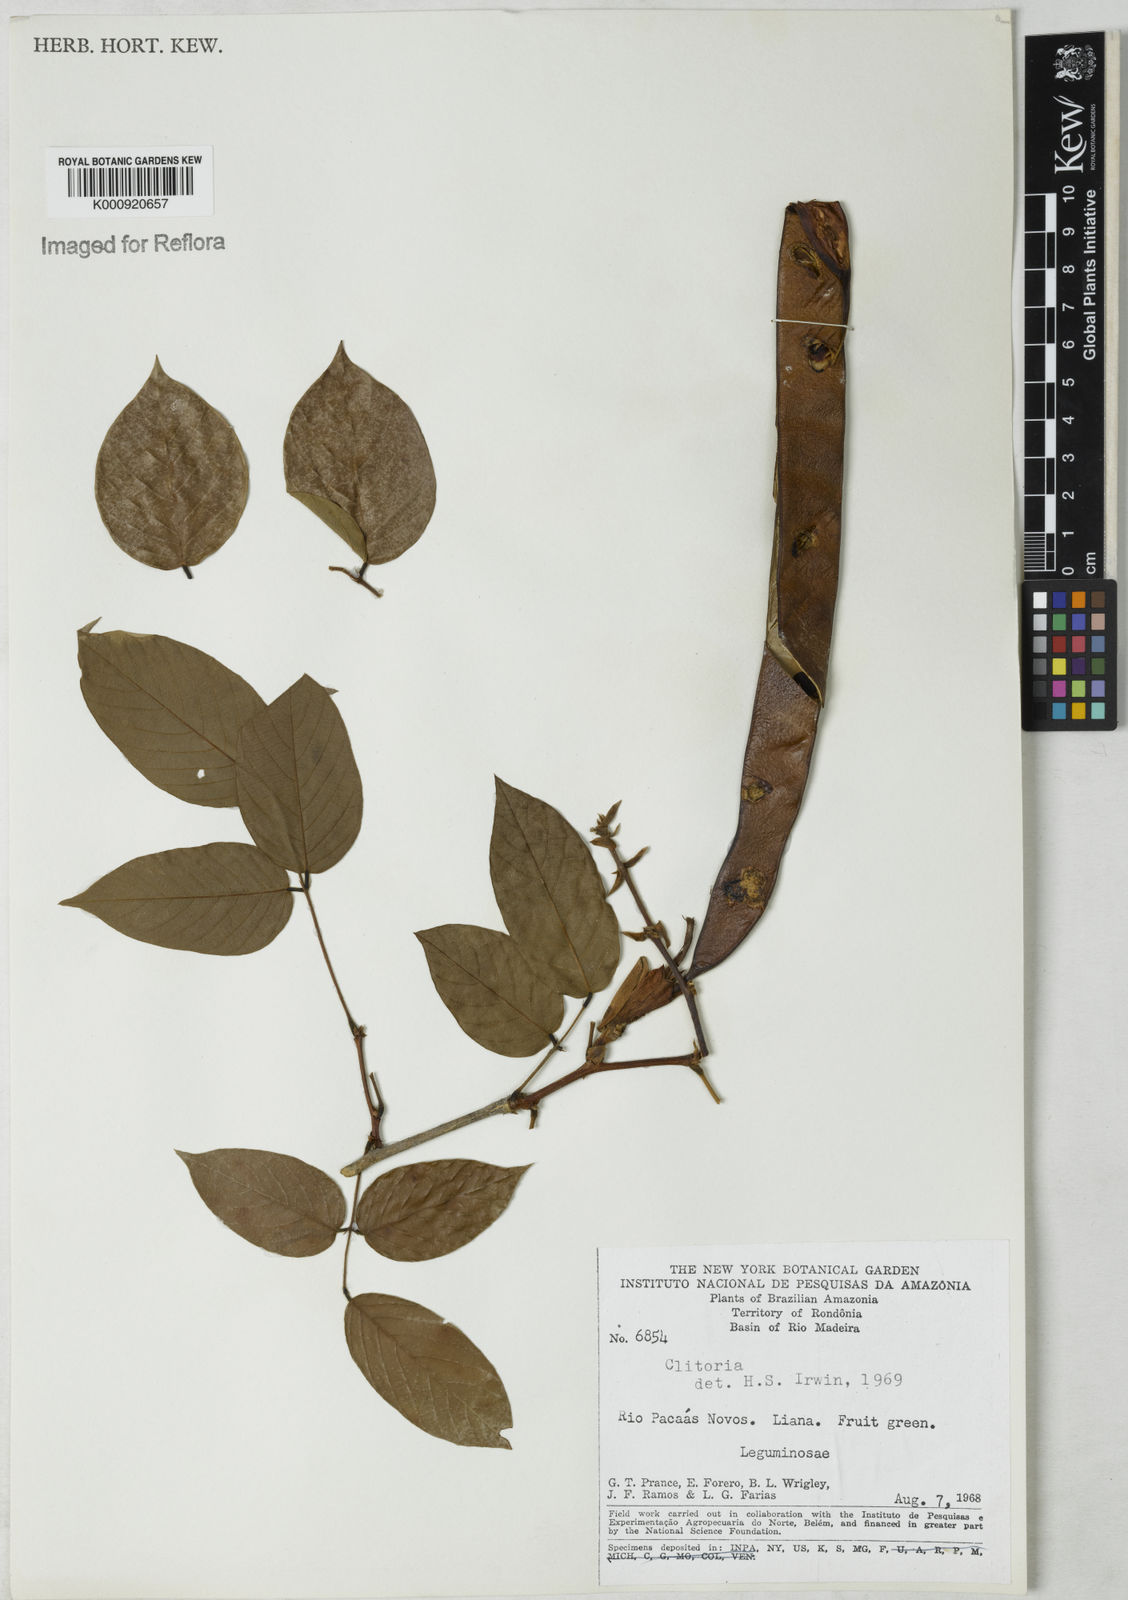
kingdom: Plantae
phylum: Tracheophyta
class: Magnoliopsida
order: Fabales
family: Fabaceae
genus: Clitoria
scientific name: Clitoria
